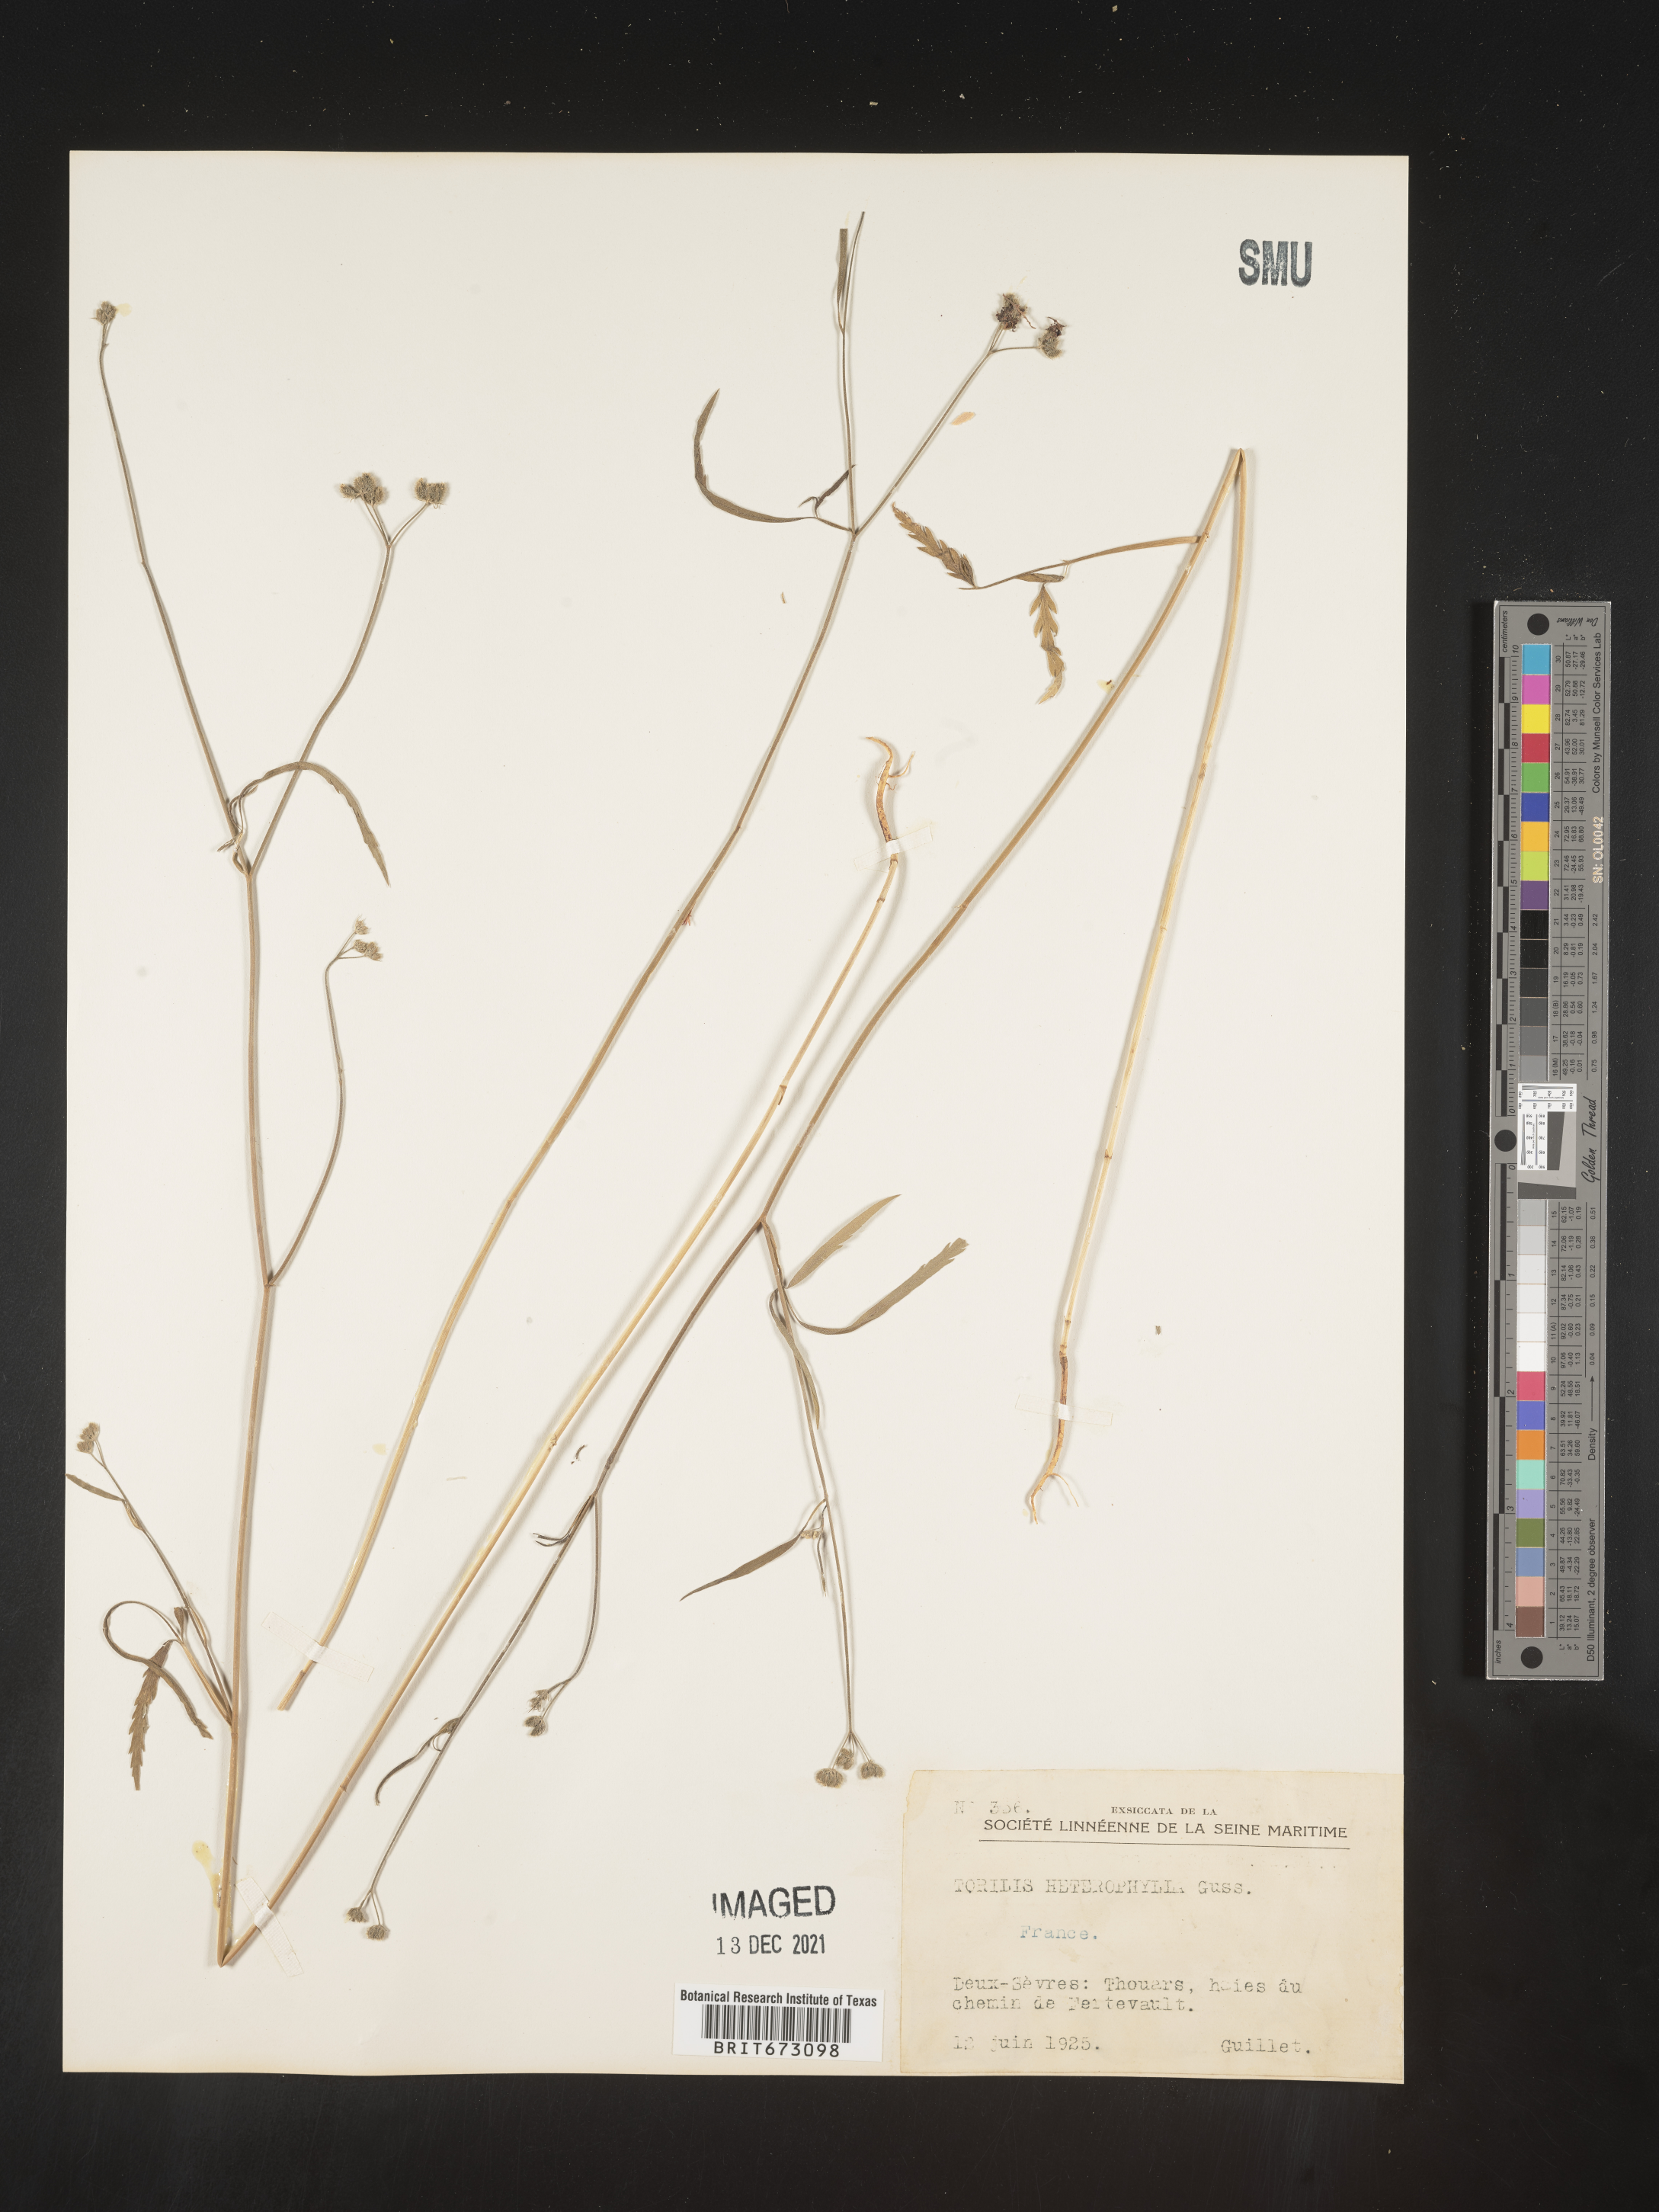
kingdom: Plantae
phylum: Tracheophyta
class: Magnoliopsida
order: Apiales
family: Apiaceae
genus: Torilis
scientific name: Torilis
